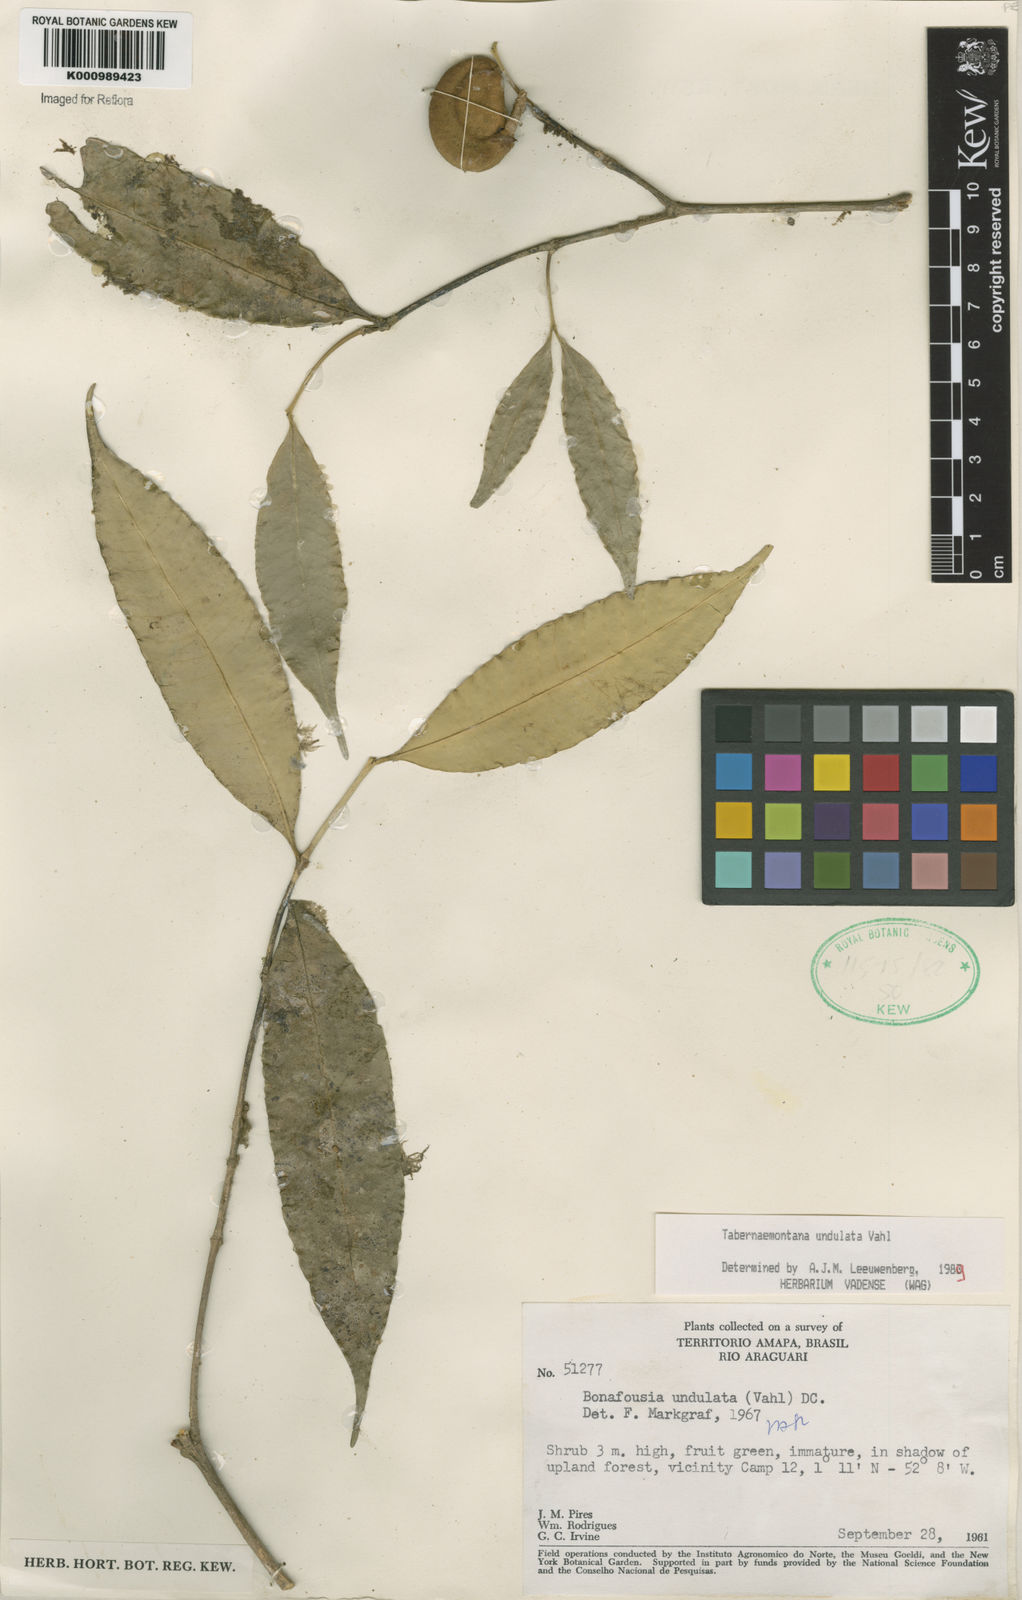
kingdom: Plantae
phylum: Tracheophyta
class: Magnoliopsida
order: Gentianales
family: Apocynaceae
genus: Tabernaemontana
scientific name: Tabernaemontana undulata
